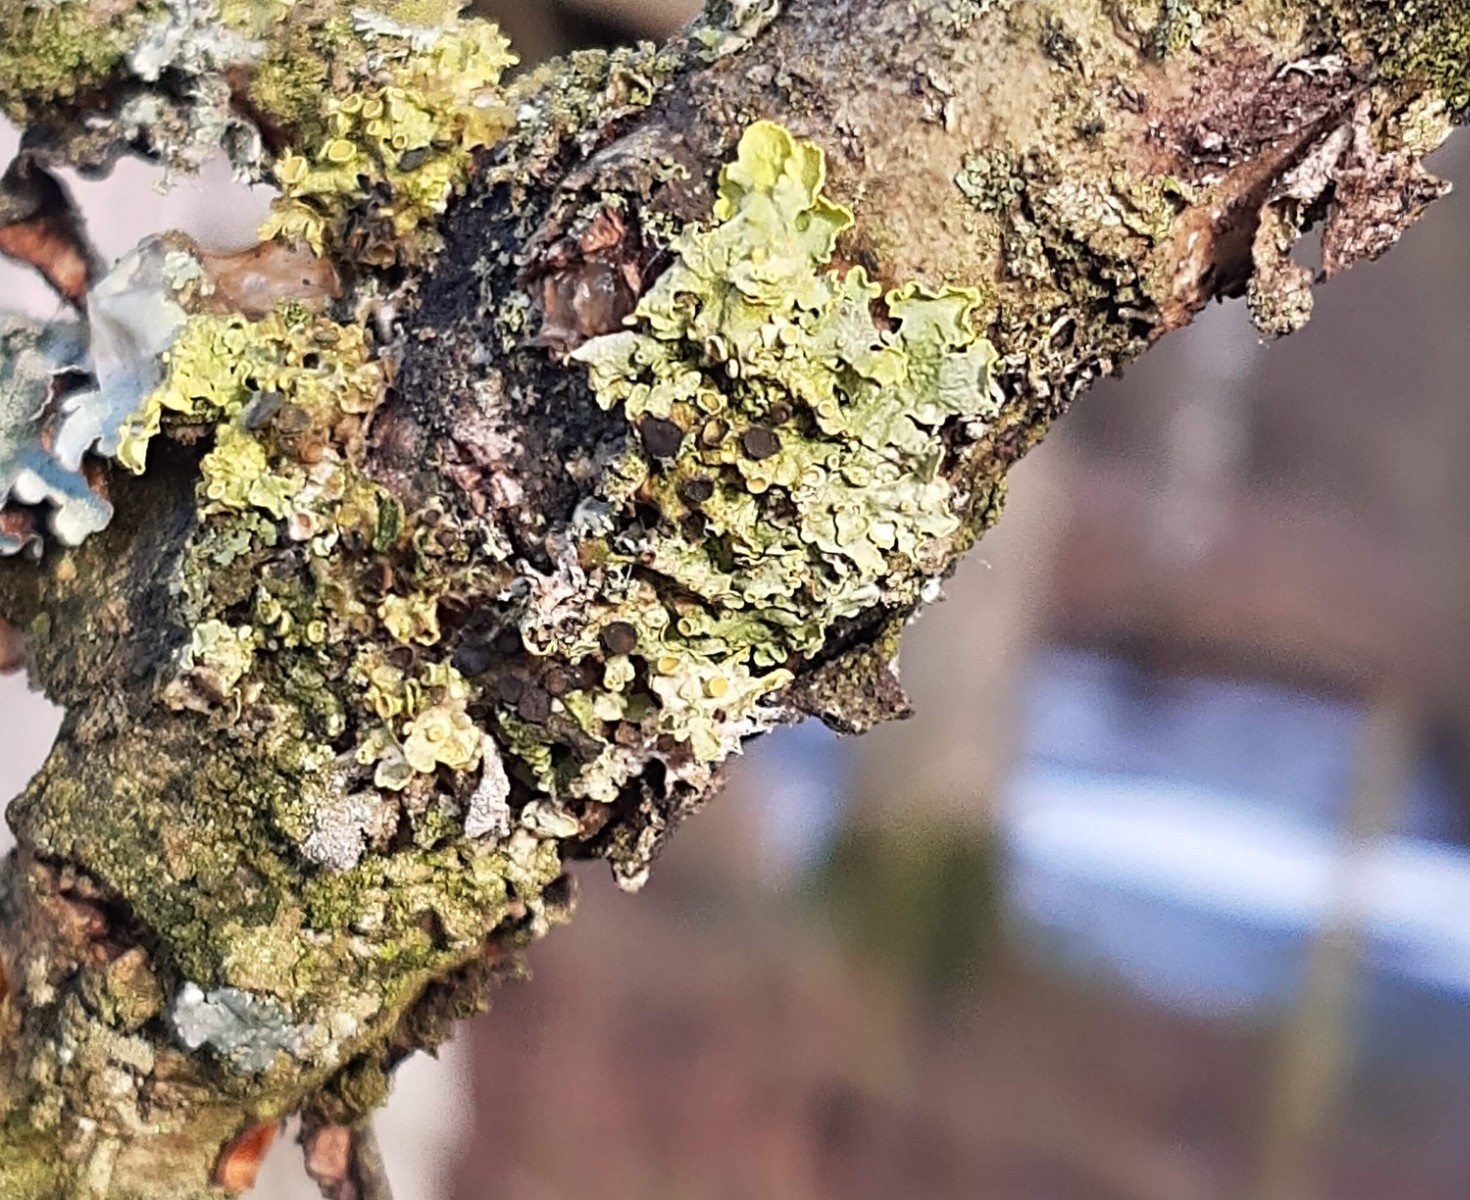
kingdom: Fungi
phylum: Ascomycota
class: Dothideomycetes
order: Mycosphaerellales
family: Teratosphaeriaceae
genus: Xanthoriicola
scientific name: Xanthoriicola physciae
